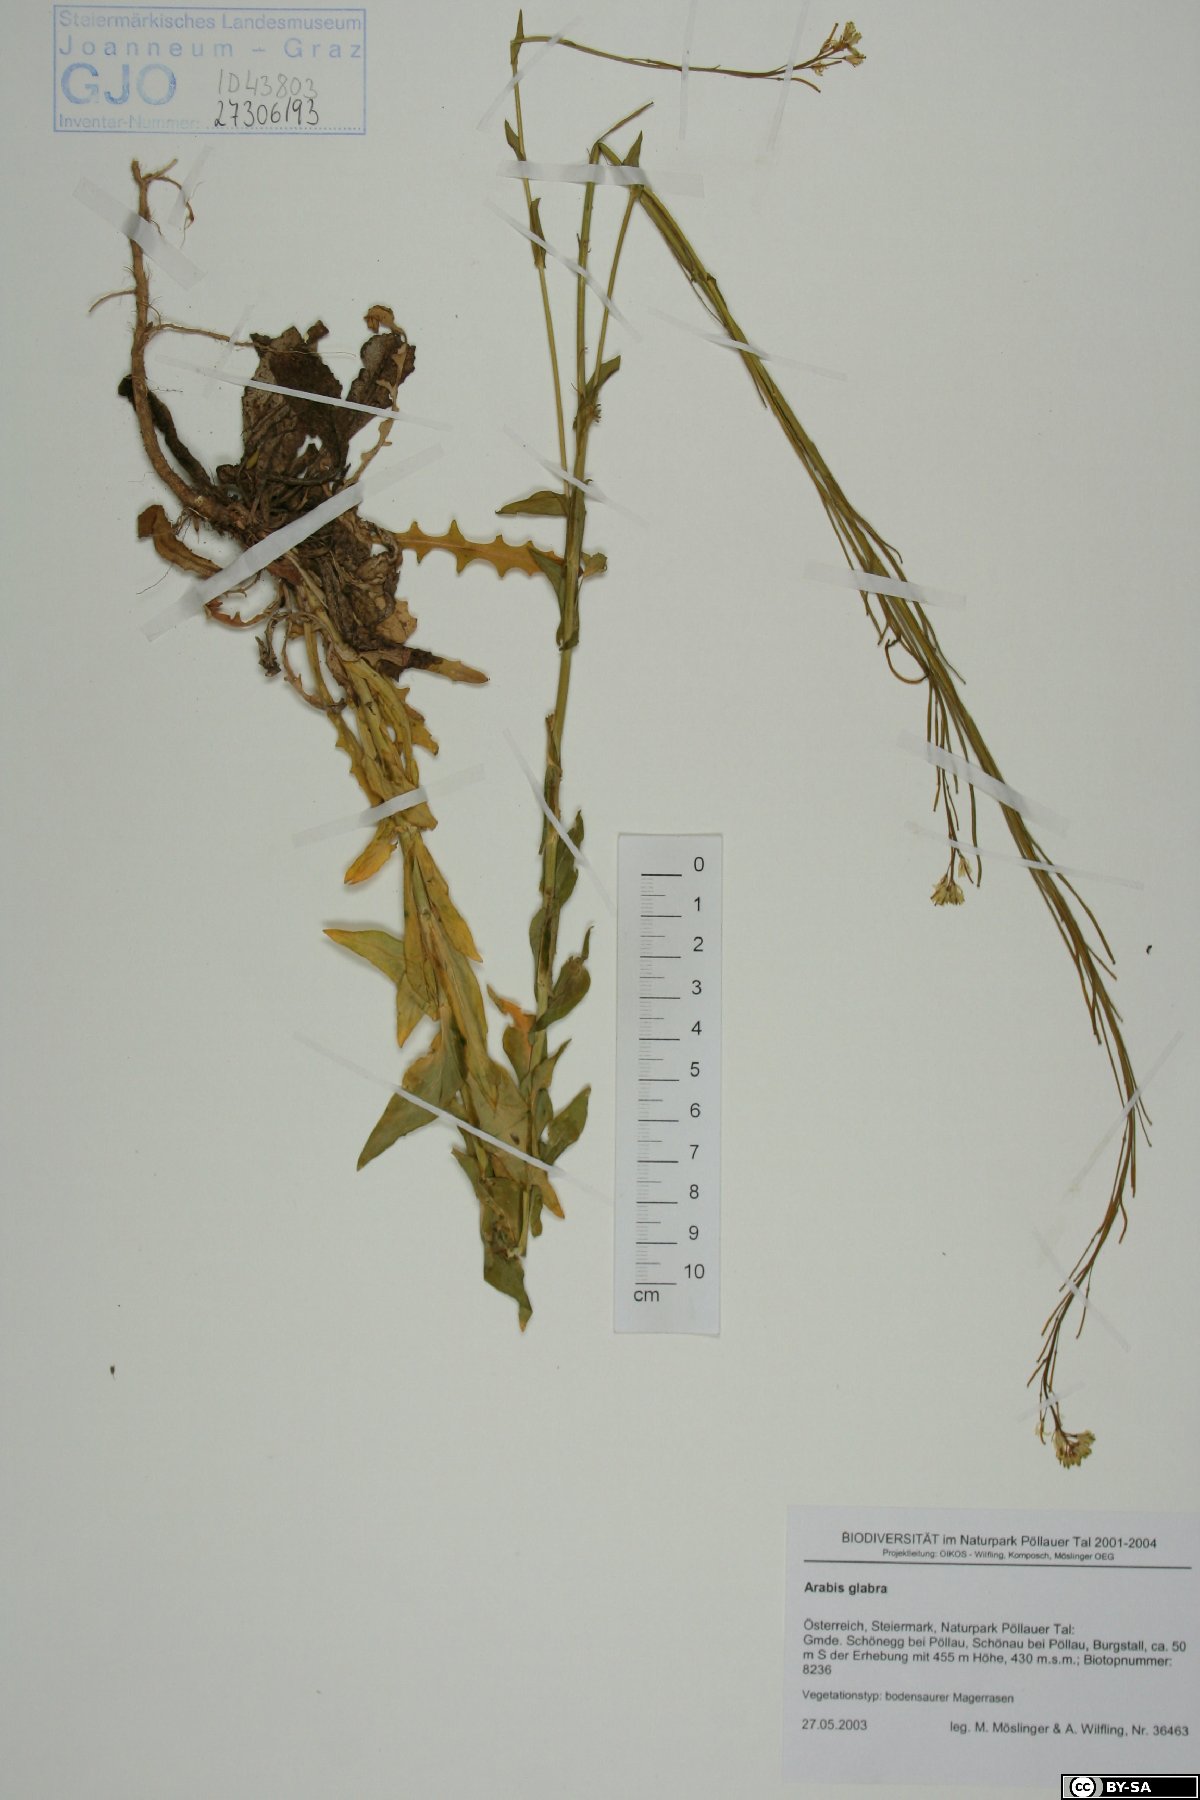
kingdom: Plantae
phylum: Tracheophyta
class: Magnoliopsida
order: Brassicales
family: Brassicaceae
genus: Turritis
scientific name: Turritis glabra
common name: Tower rockcress
